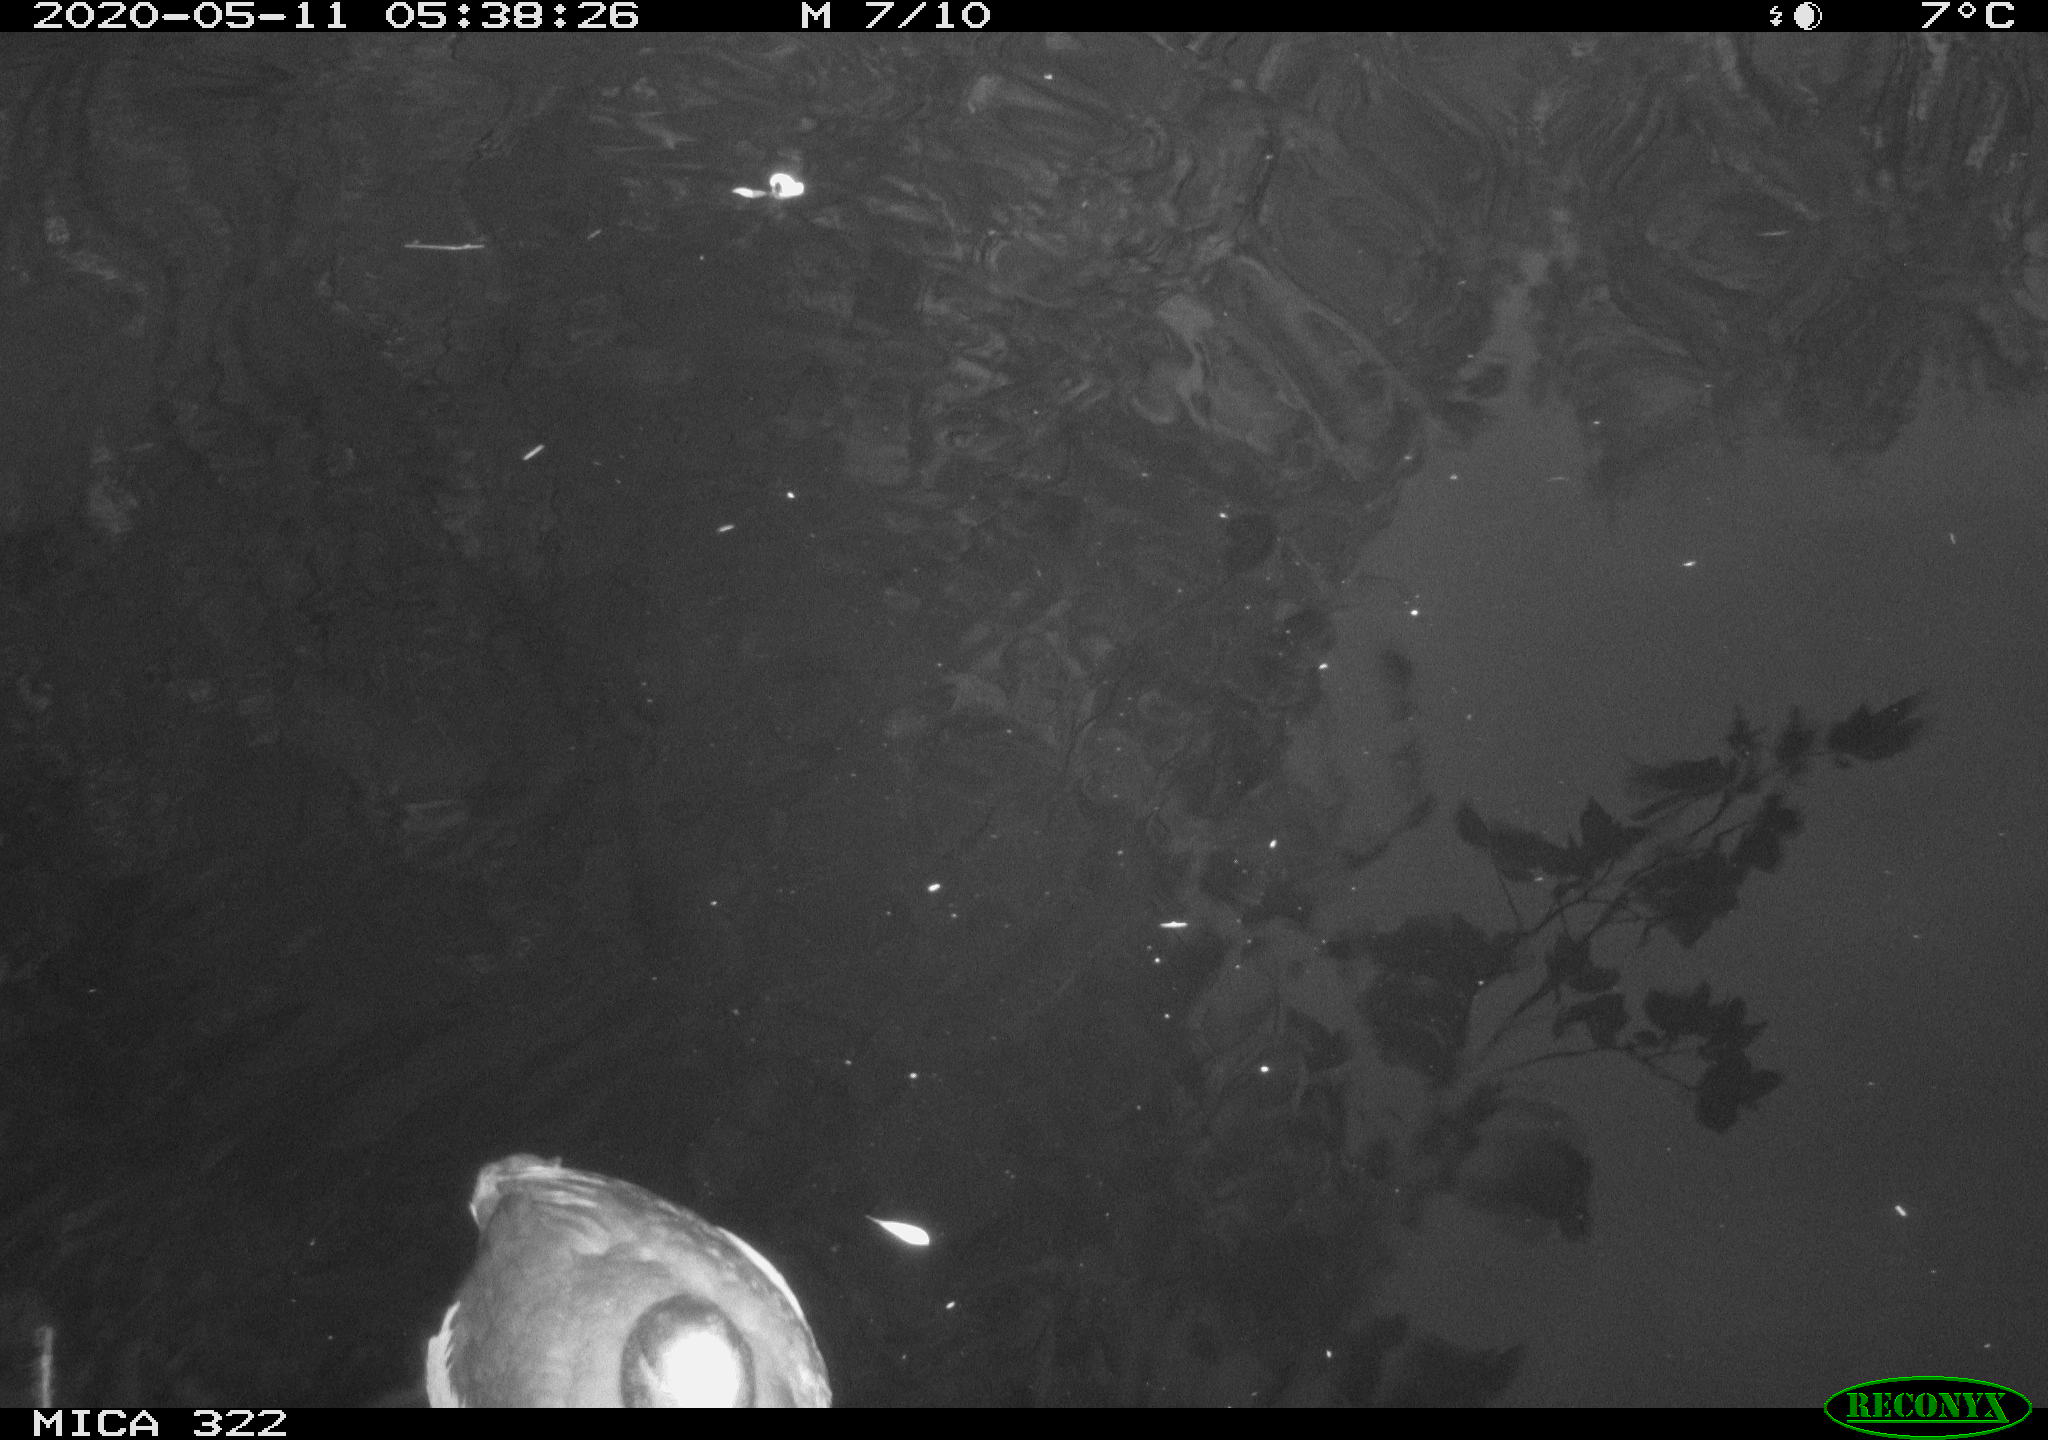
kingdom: Animalia
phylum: Chordata
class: Aves
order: Gruiformes
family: Rallidae
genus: Fulica
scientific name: Fulica atra
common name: Eurasian coot
